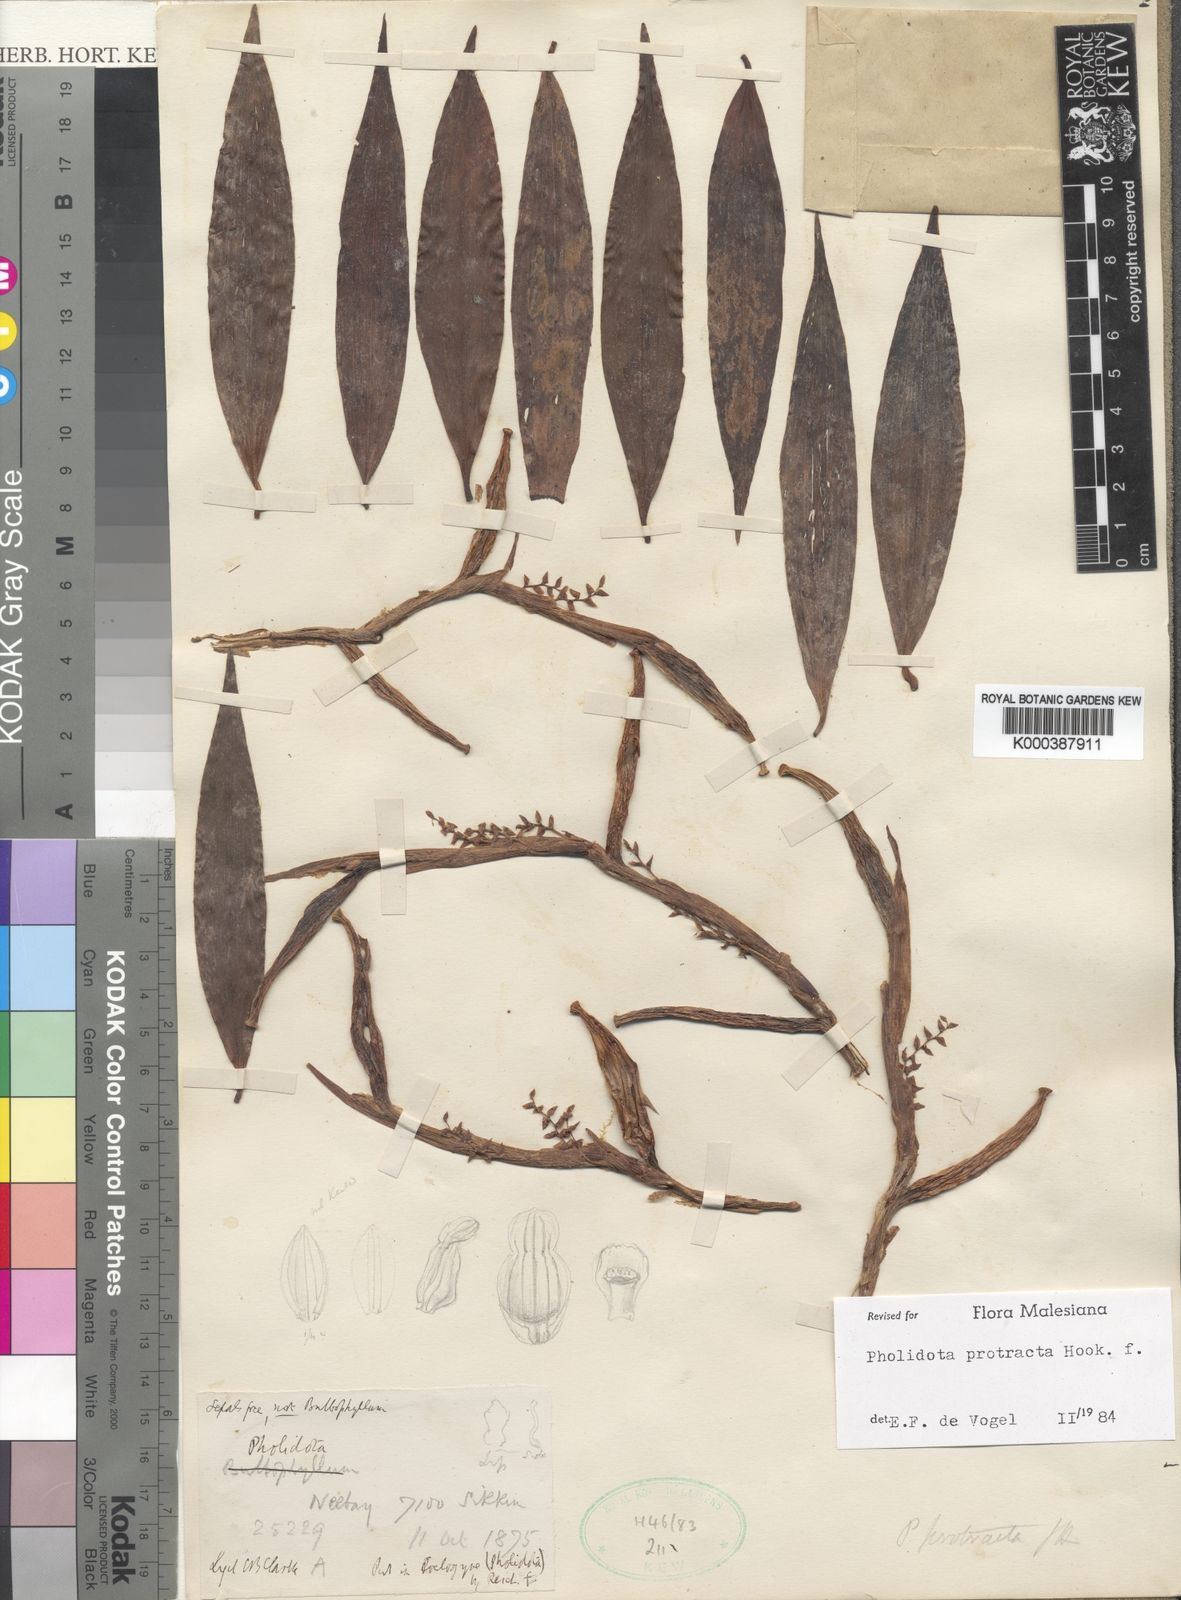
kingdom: Plantae
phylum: Tracheophyta
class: Liliopsida
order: Asparagales
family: Orchidaceae
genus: Coelogyne
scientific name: Coelogyne protracta
